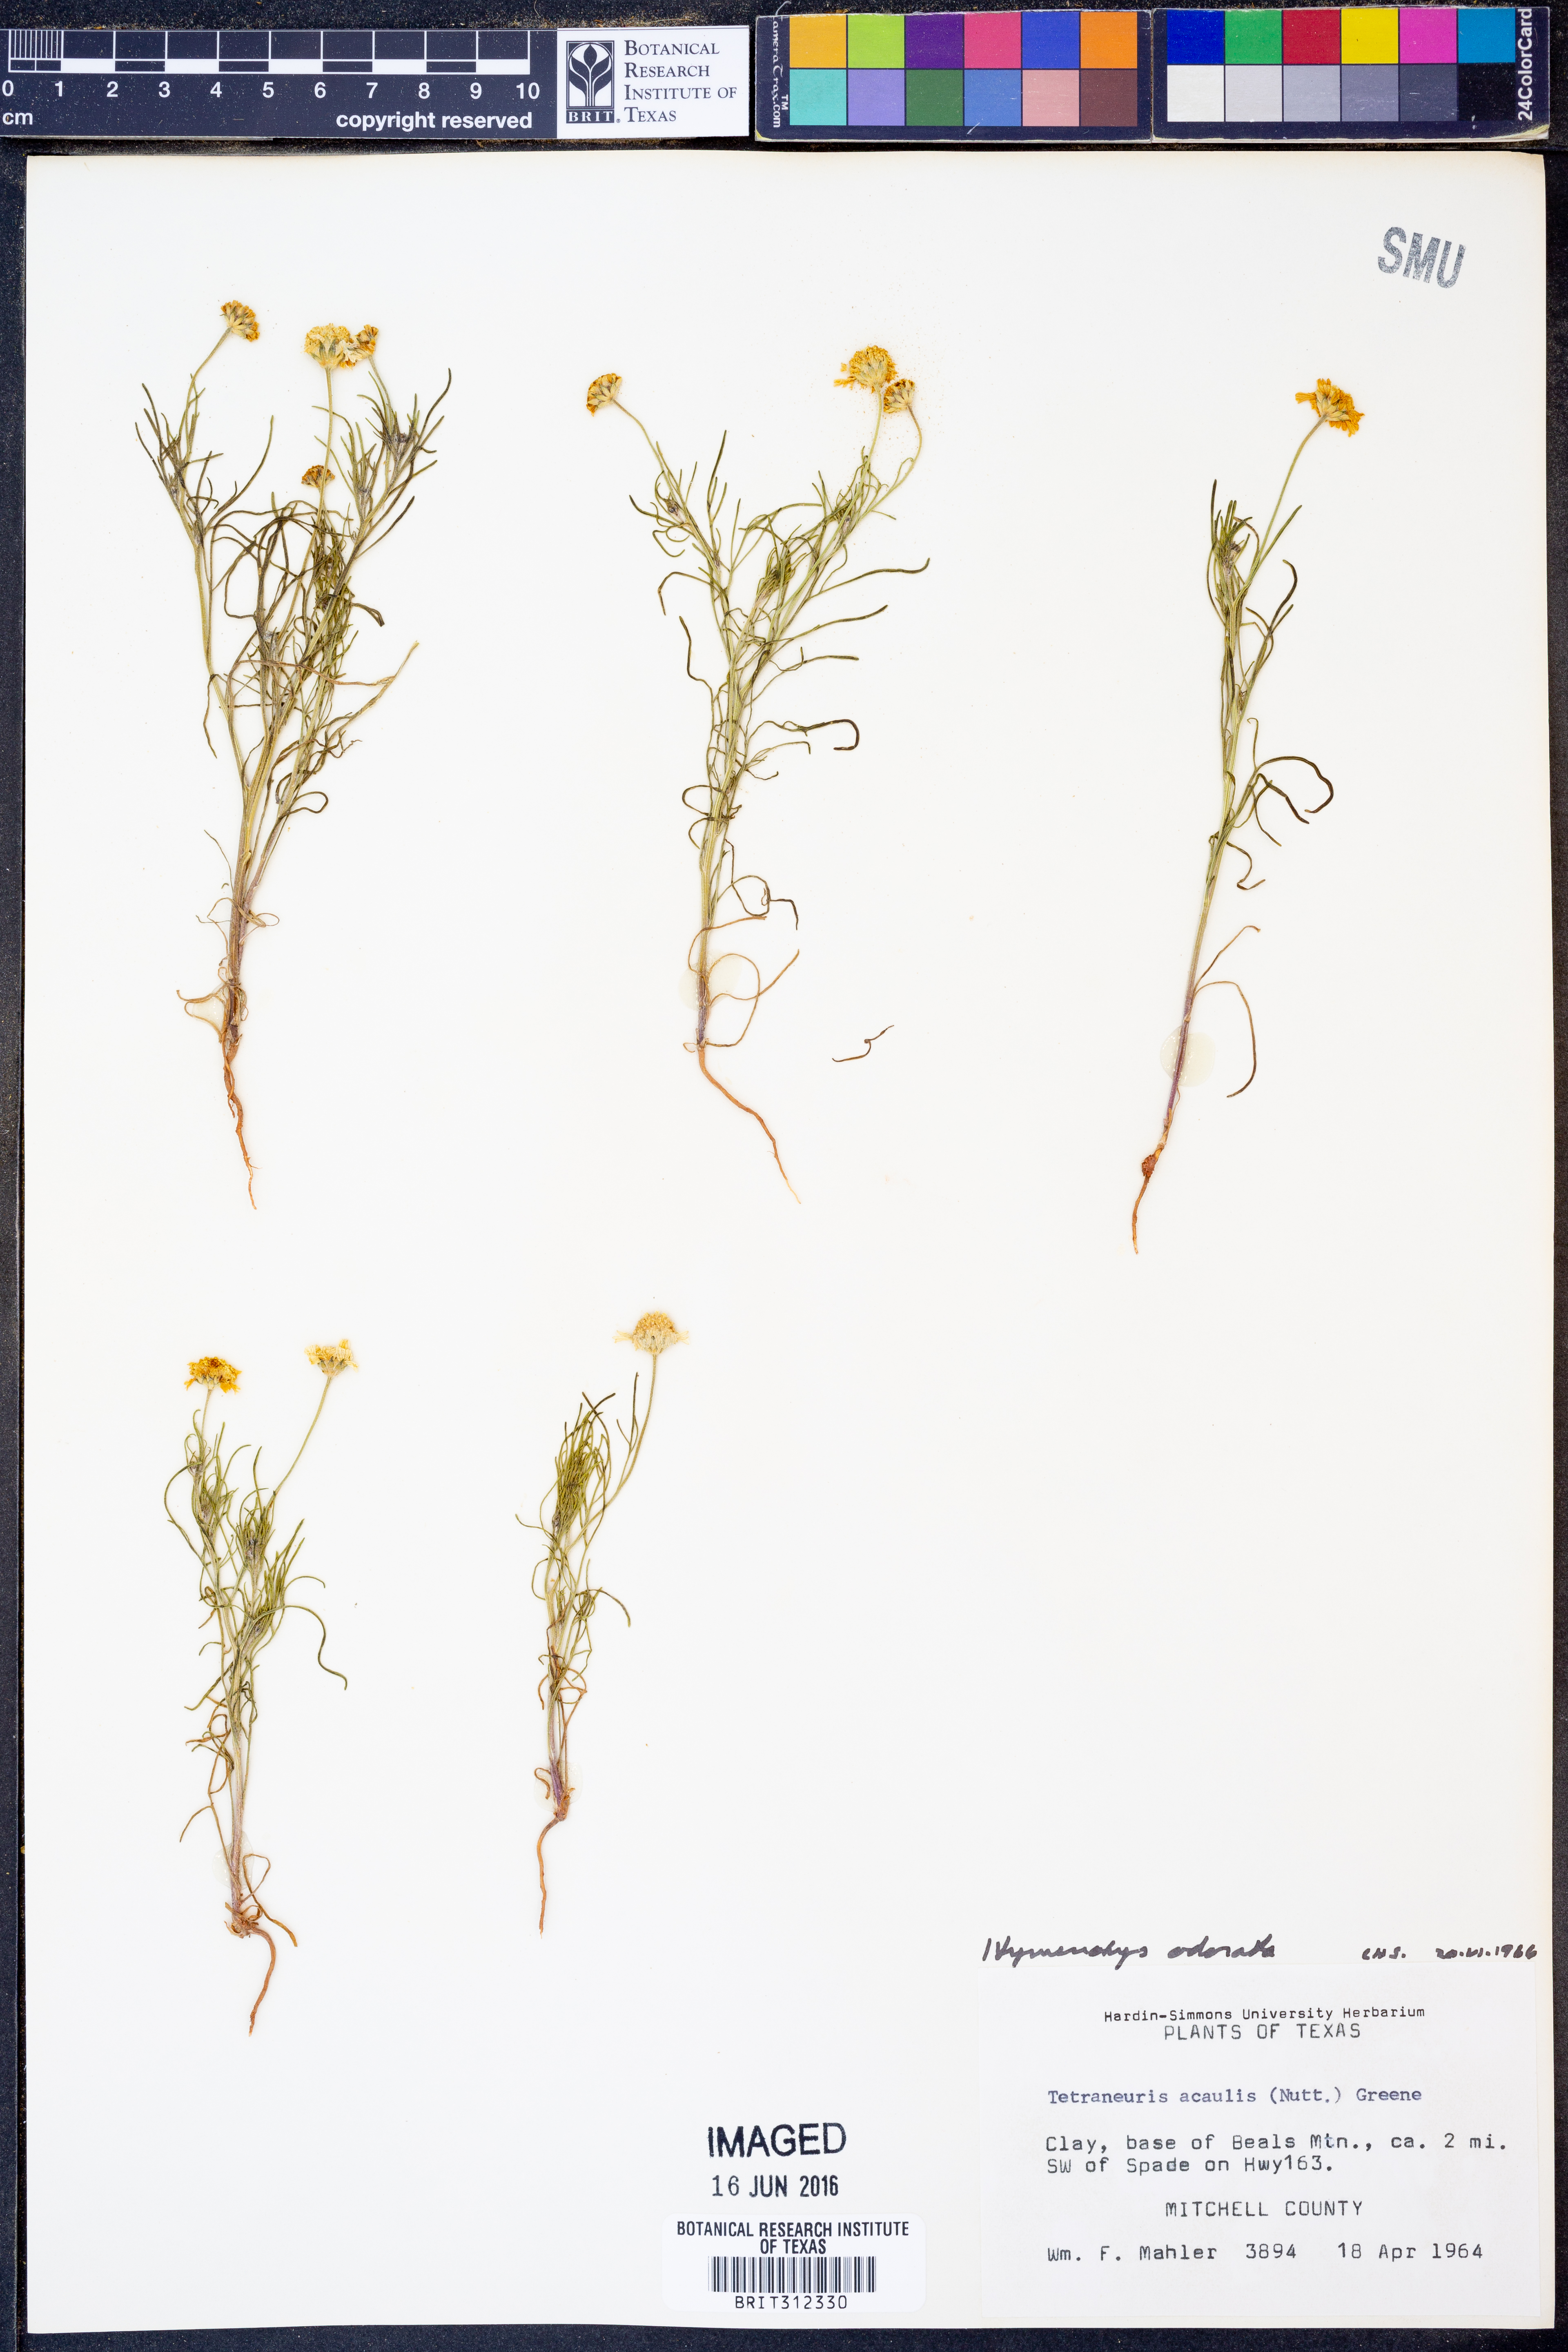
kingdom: Plantae
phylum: Tracheophyta
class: Magnoliopsida
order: Asterales
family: Asteraceae
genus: Hymenoxys
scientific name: Hymenoxys odorata
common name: Bitter rubberweed
